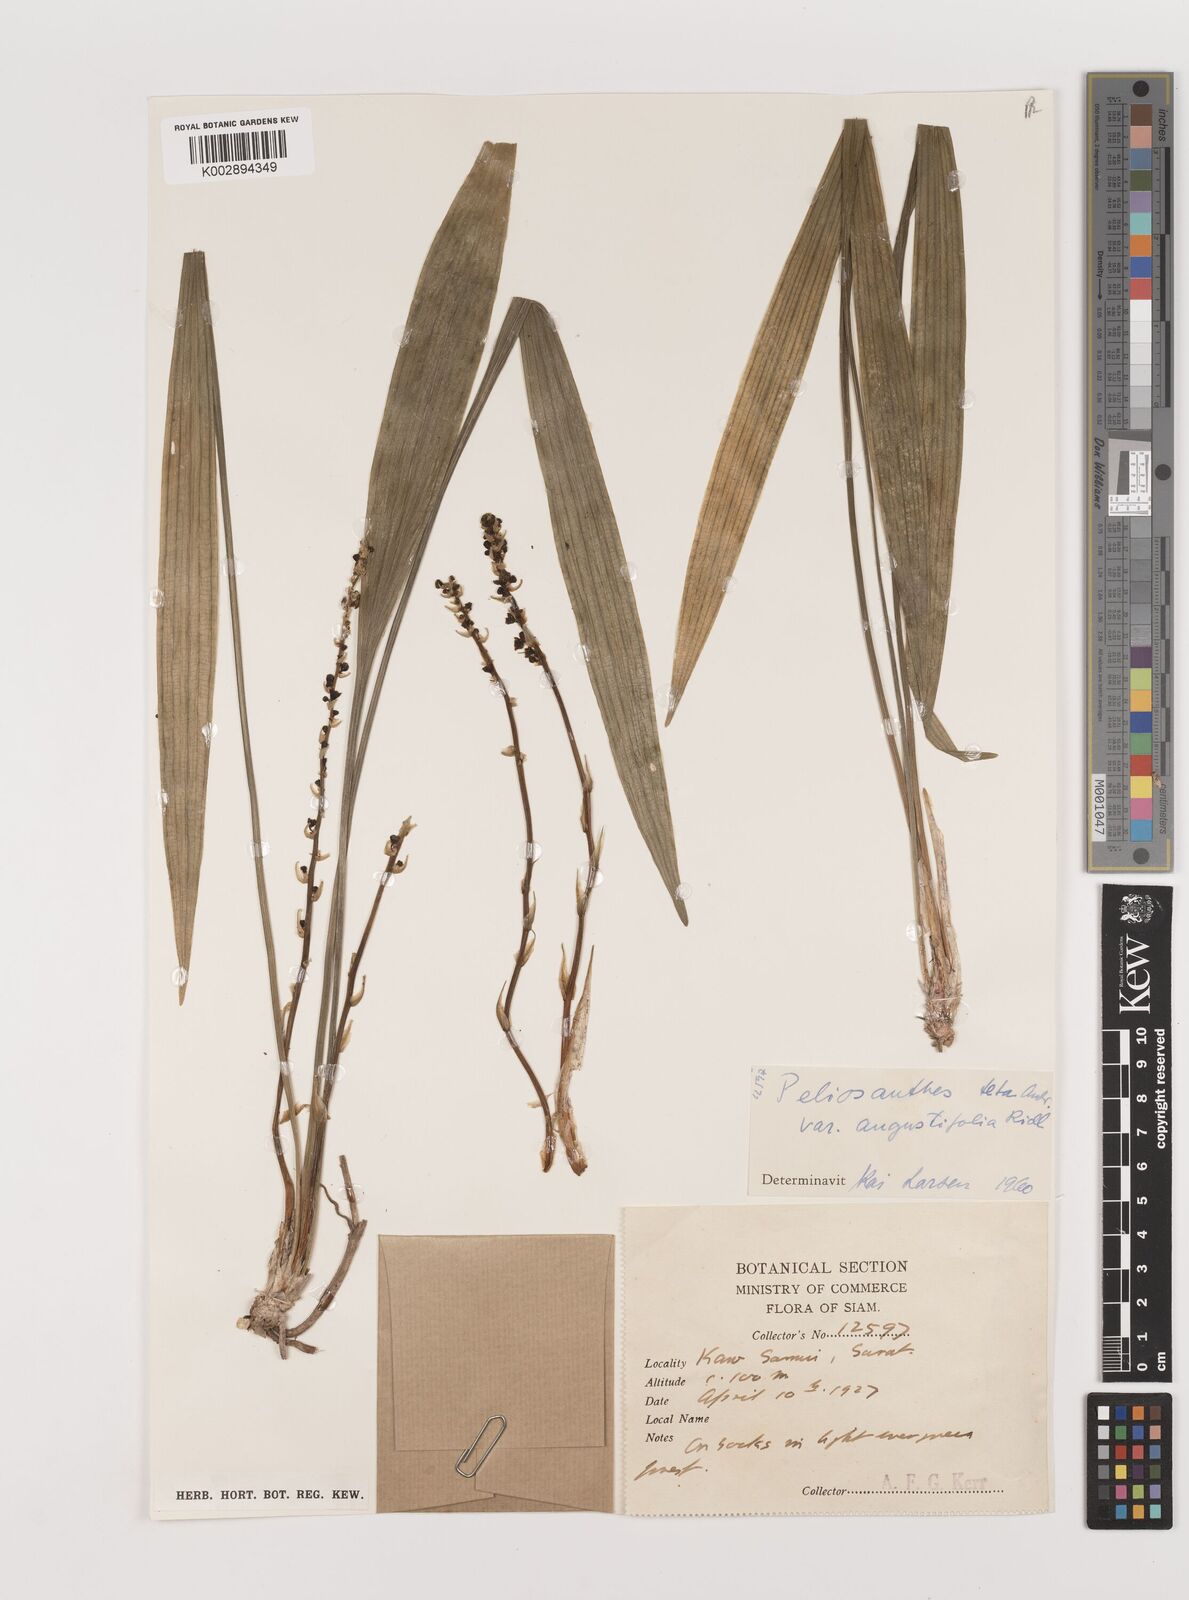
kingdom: Plantae
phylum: Tracheophyta
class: Liliopsida
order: Asparagales
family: Asparagaceae
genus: Peliosanthes
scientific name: Peliosanthes teta
